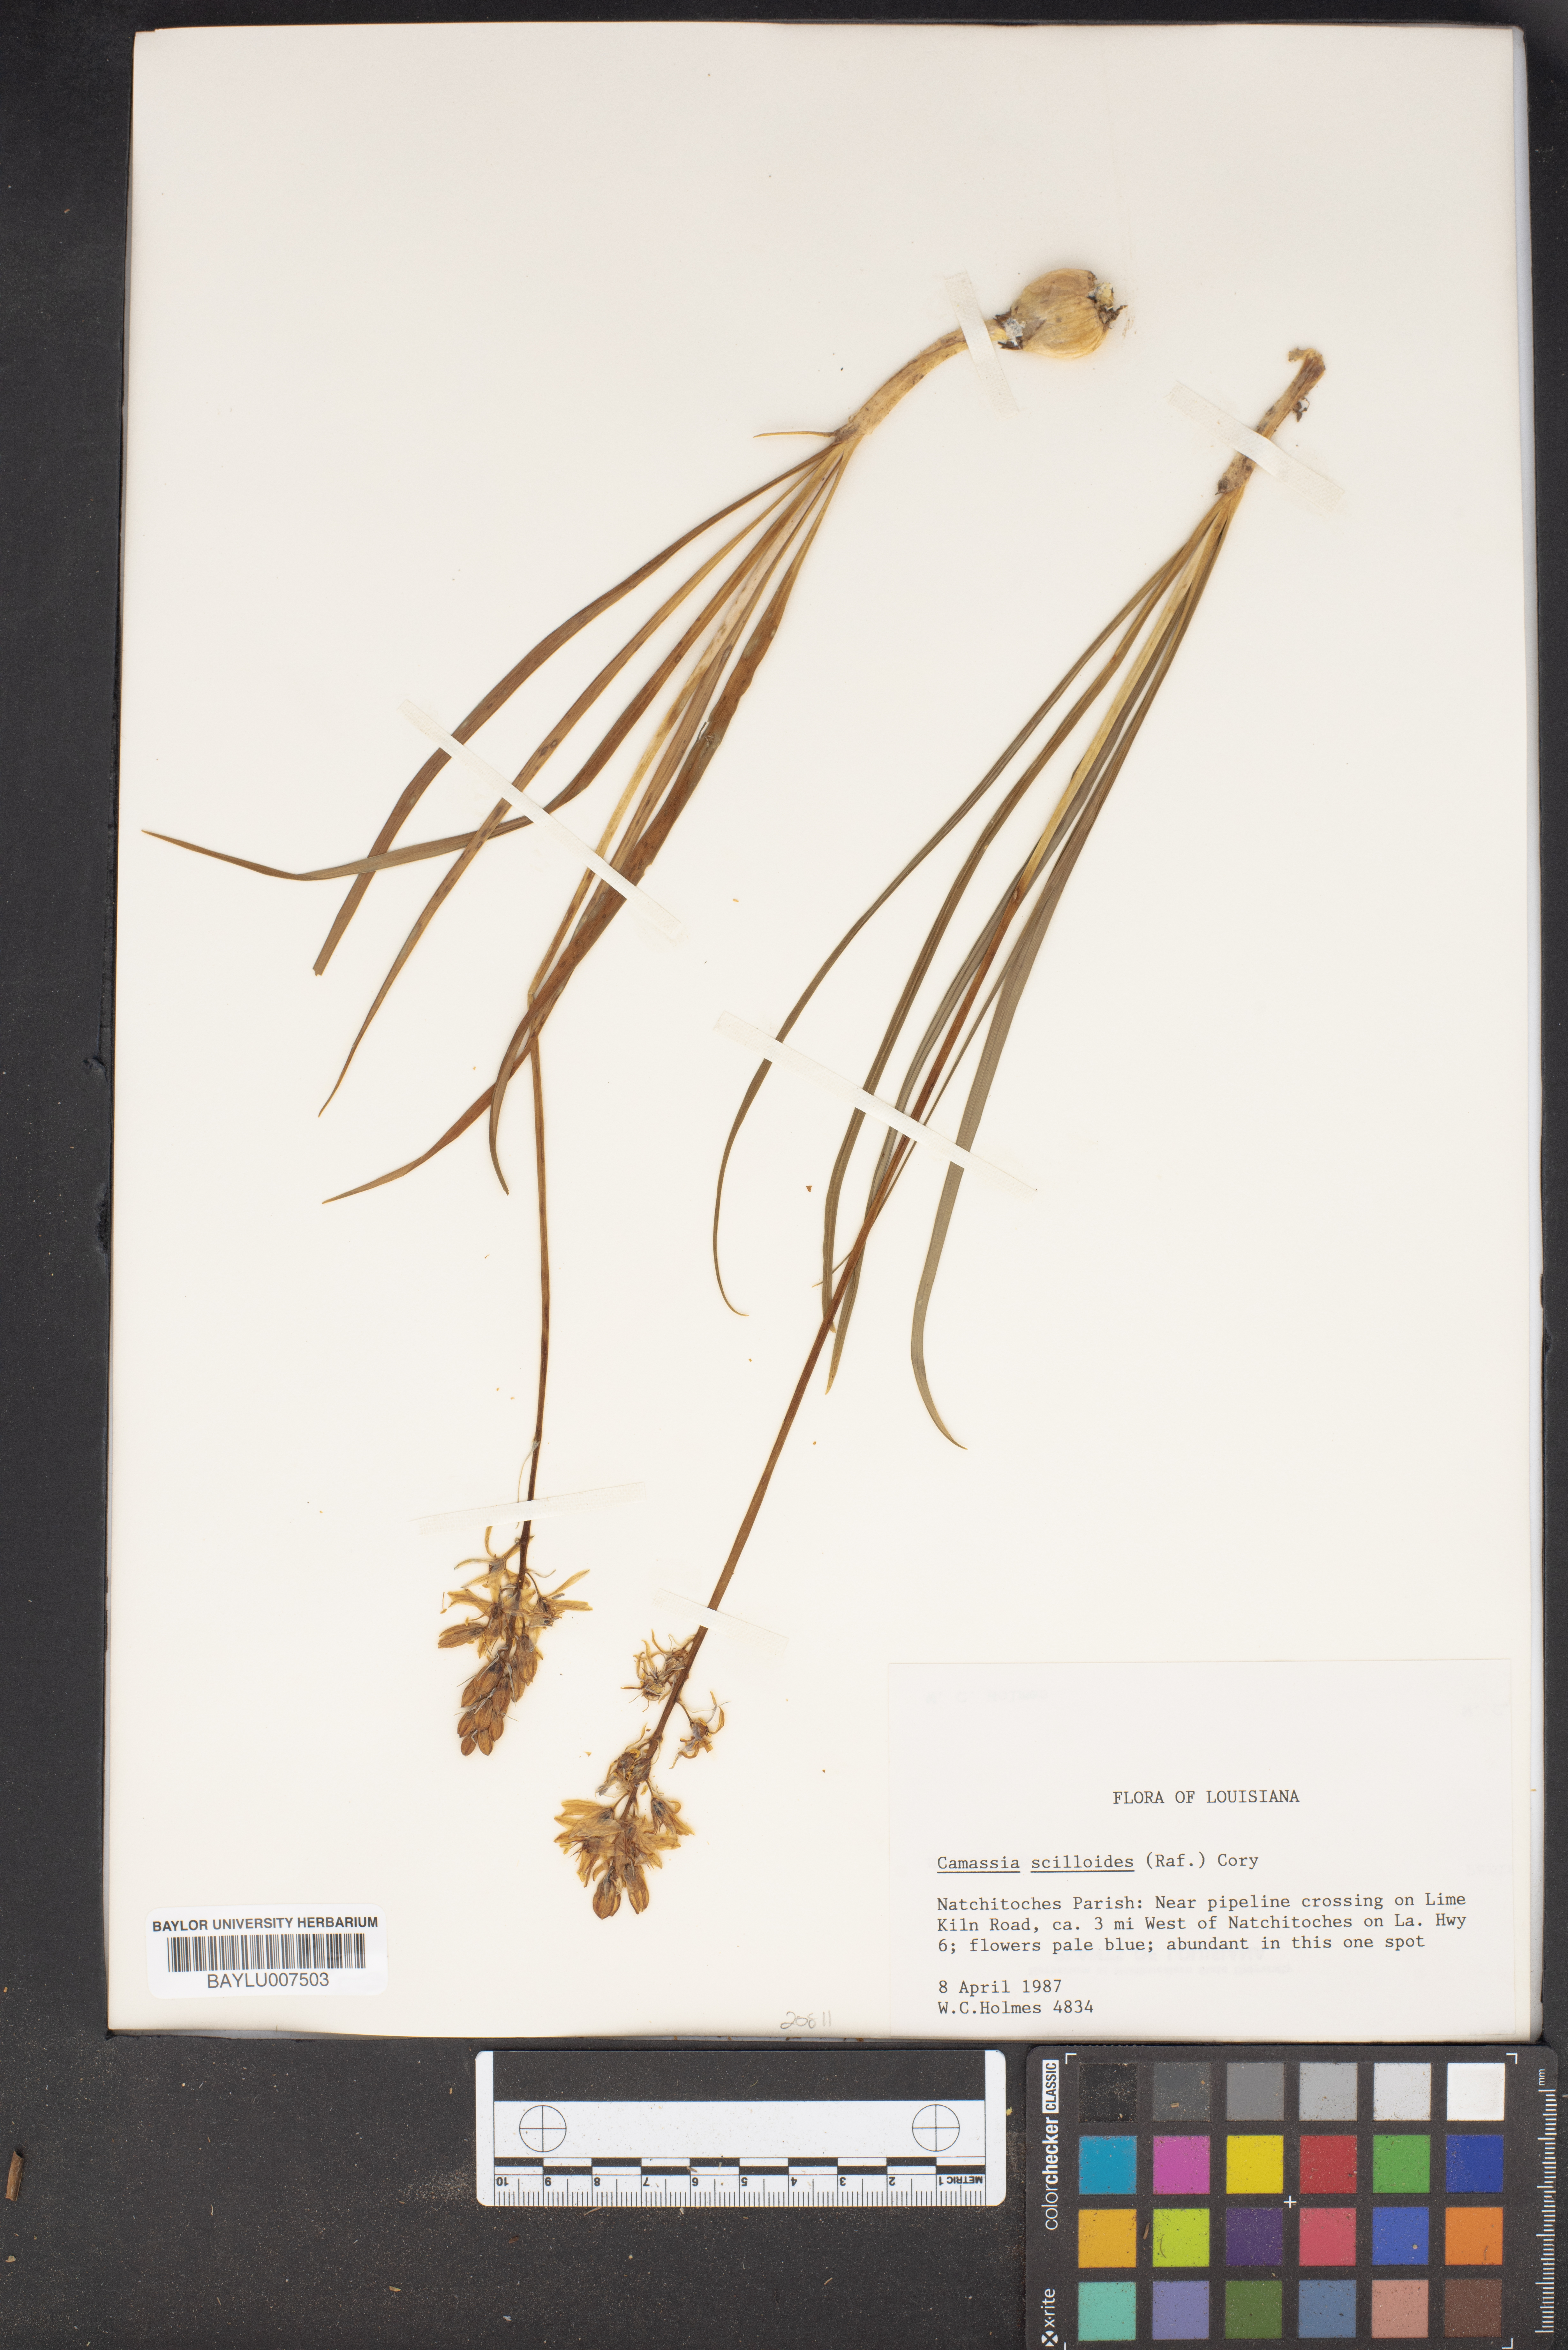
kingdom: Plantae
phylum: Tracheophyta
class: Liliopsida
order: Asparagales
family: Asparagaceae
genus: Camassia
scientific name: Camassia scilloides
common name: Wild hyacinth
